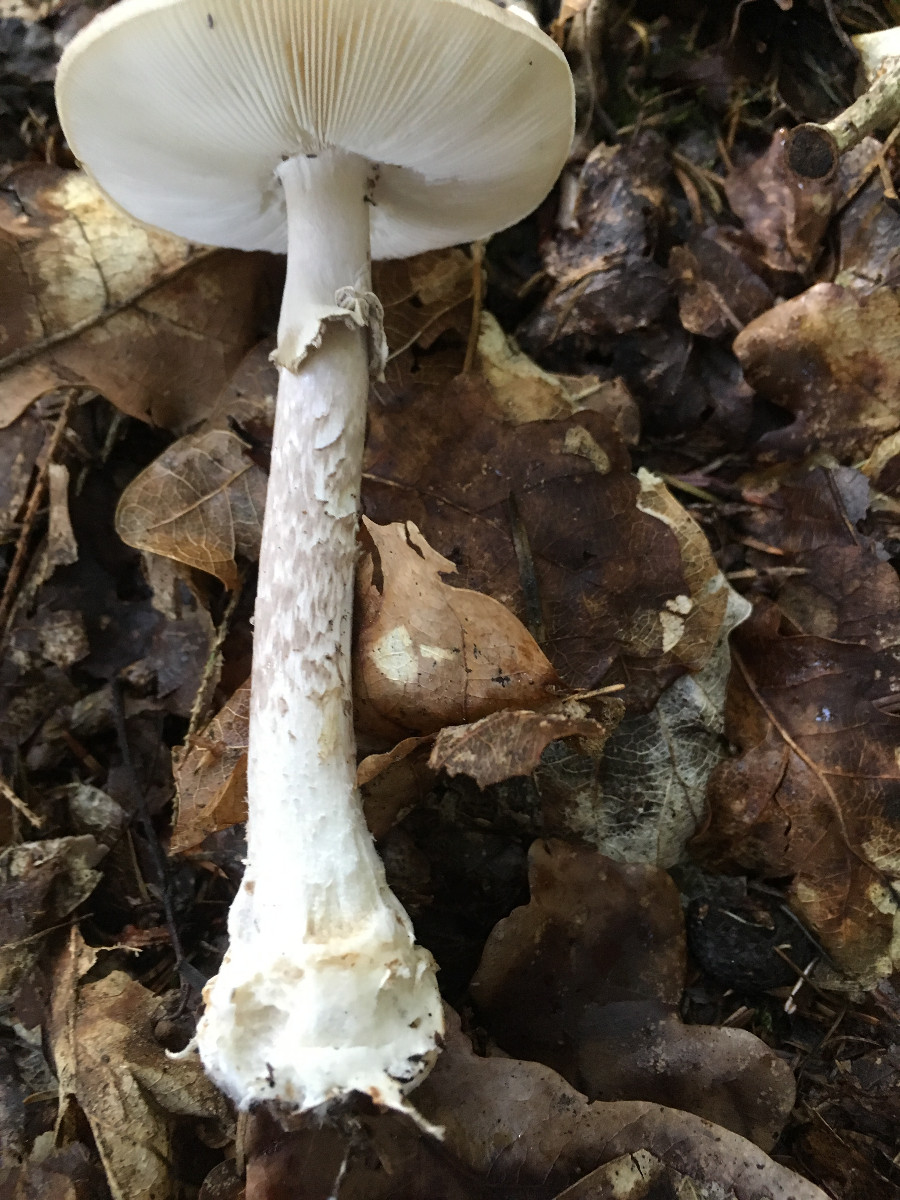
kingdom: Fungi
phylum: Basidiomycota
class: Agaricomycetes
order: Agaricales
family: Amanitaceae
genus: Amanita
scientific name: Amanita porphyria
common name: porfyr-fluesvamp
